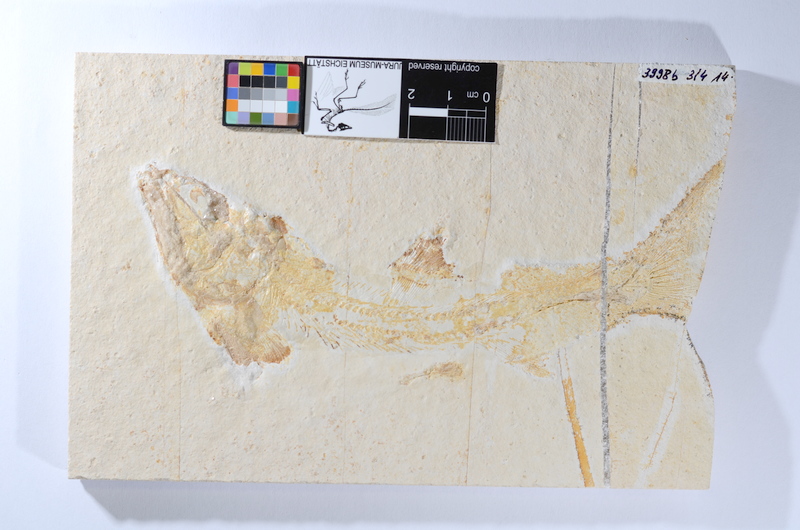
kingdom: Animalia
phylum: Chordata
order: Amiiformes
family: Caturidae
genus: Caturus
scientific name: Caturus
